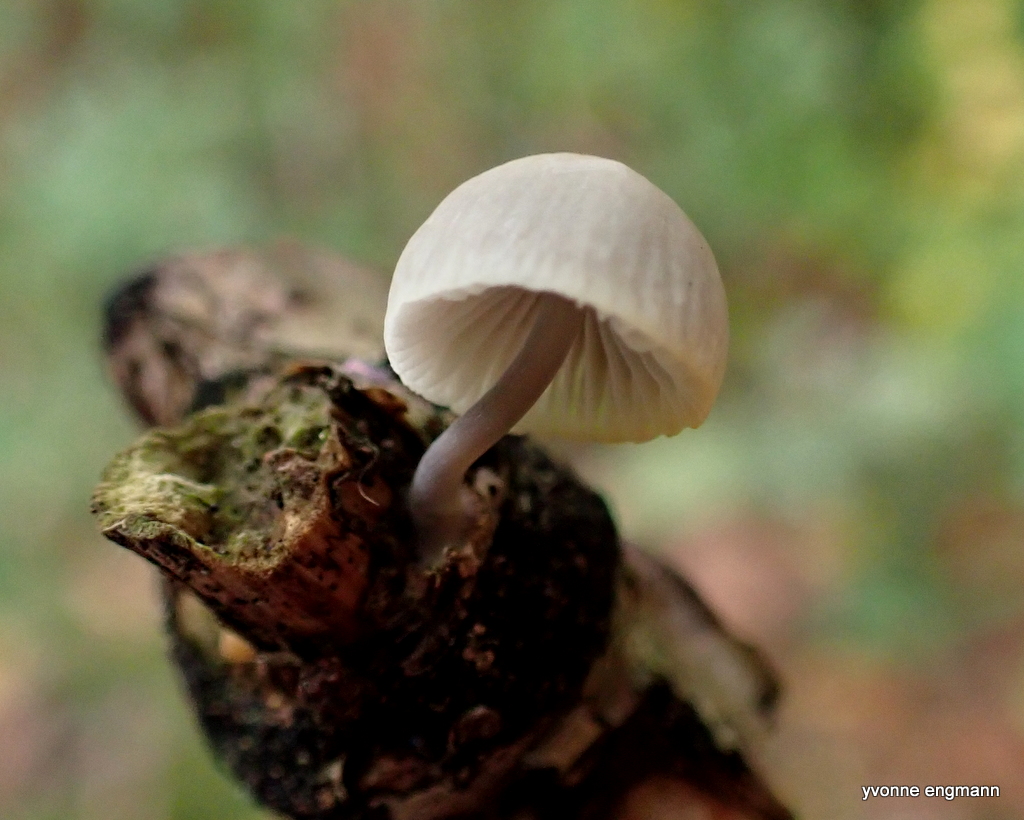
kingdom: Fungi
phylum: Basidiomycota
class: Agaricomycetes
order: Agaricales
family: Mycenaceae
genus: Mycena
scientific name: Mycena galericulata
